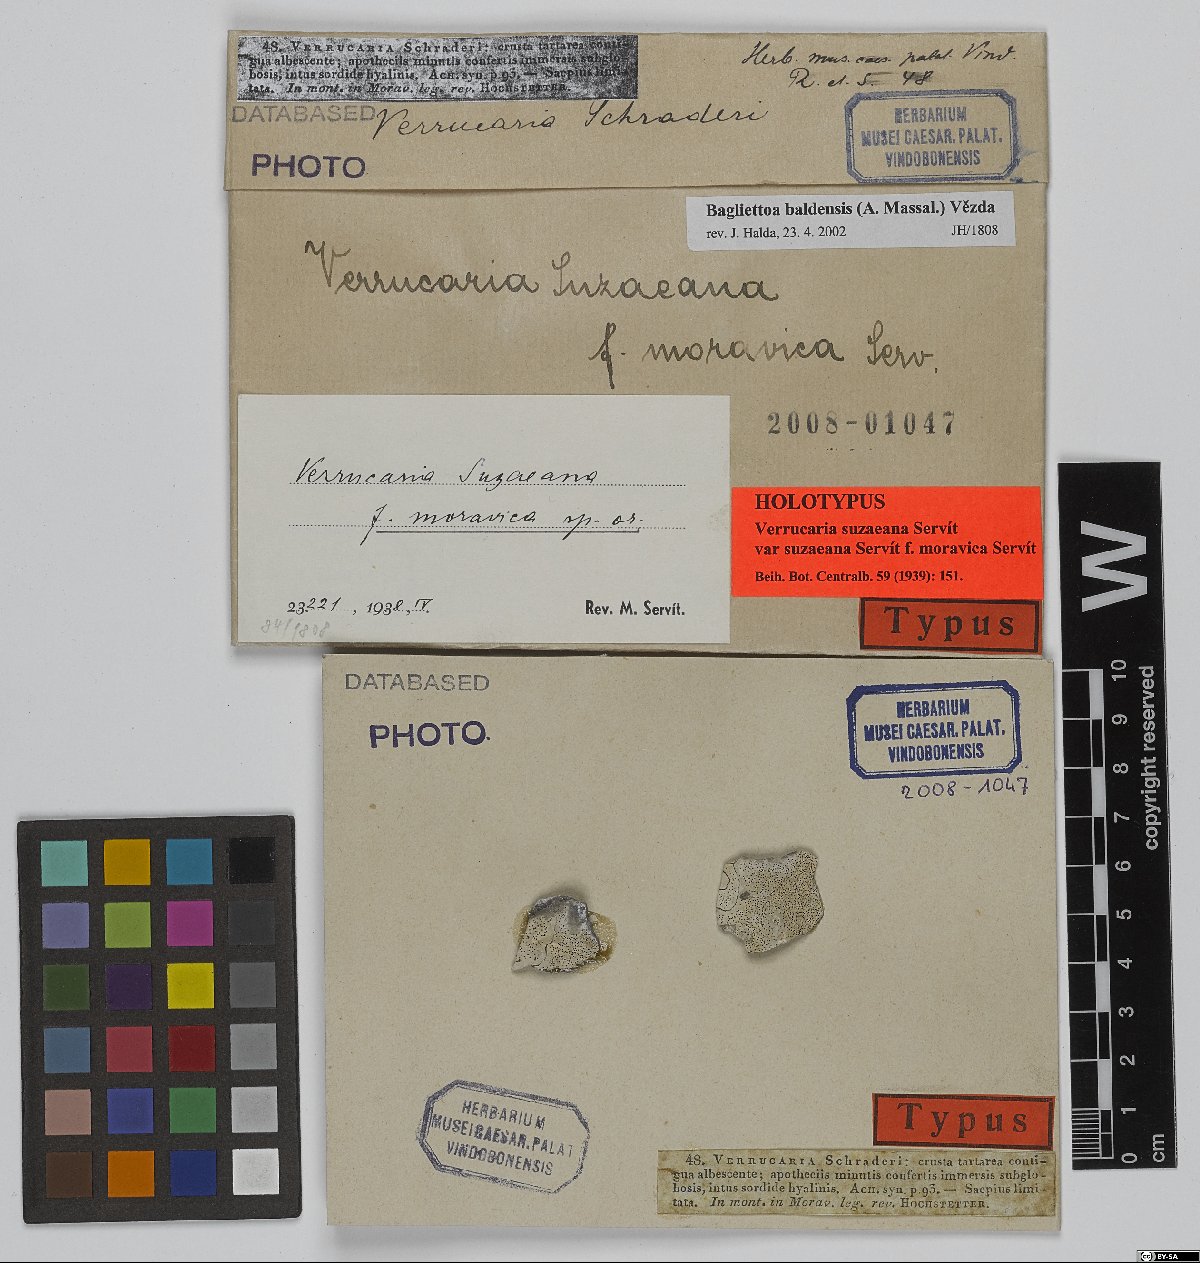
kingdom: Fungi
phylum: Ascomycota
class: Eurotiomycetes
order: Verrucariales
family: Verrucariaceae
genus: Bagliettoa
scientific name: Bagliettoa suzaeana
